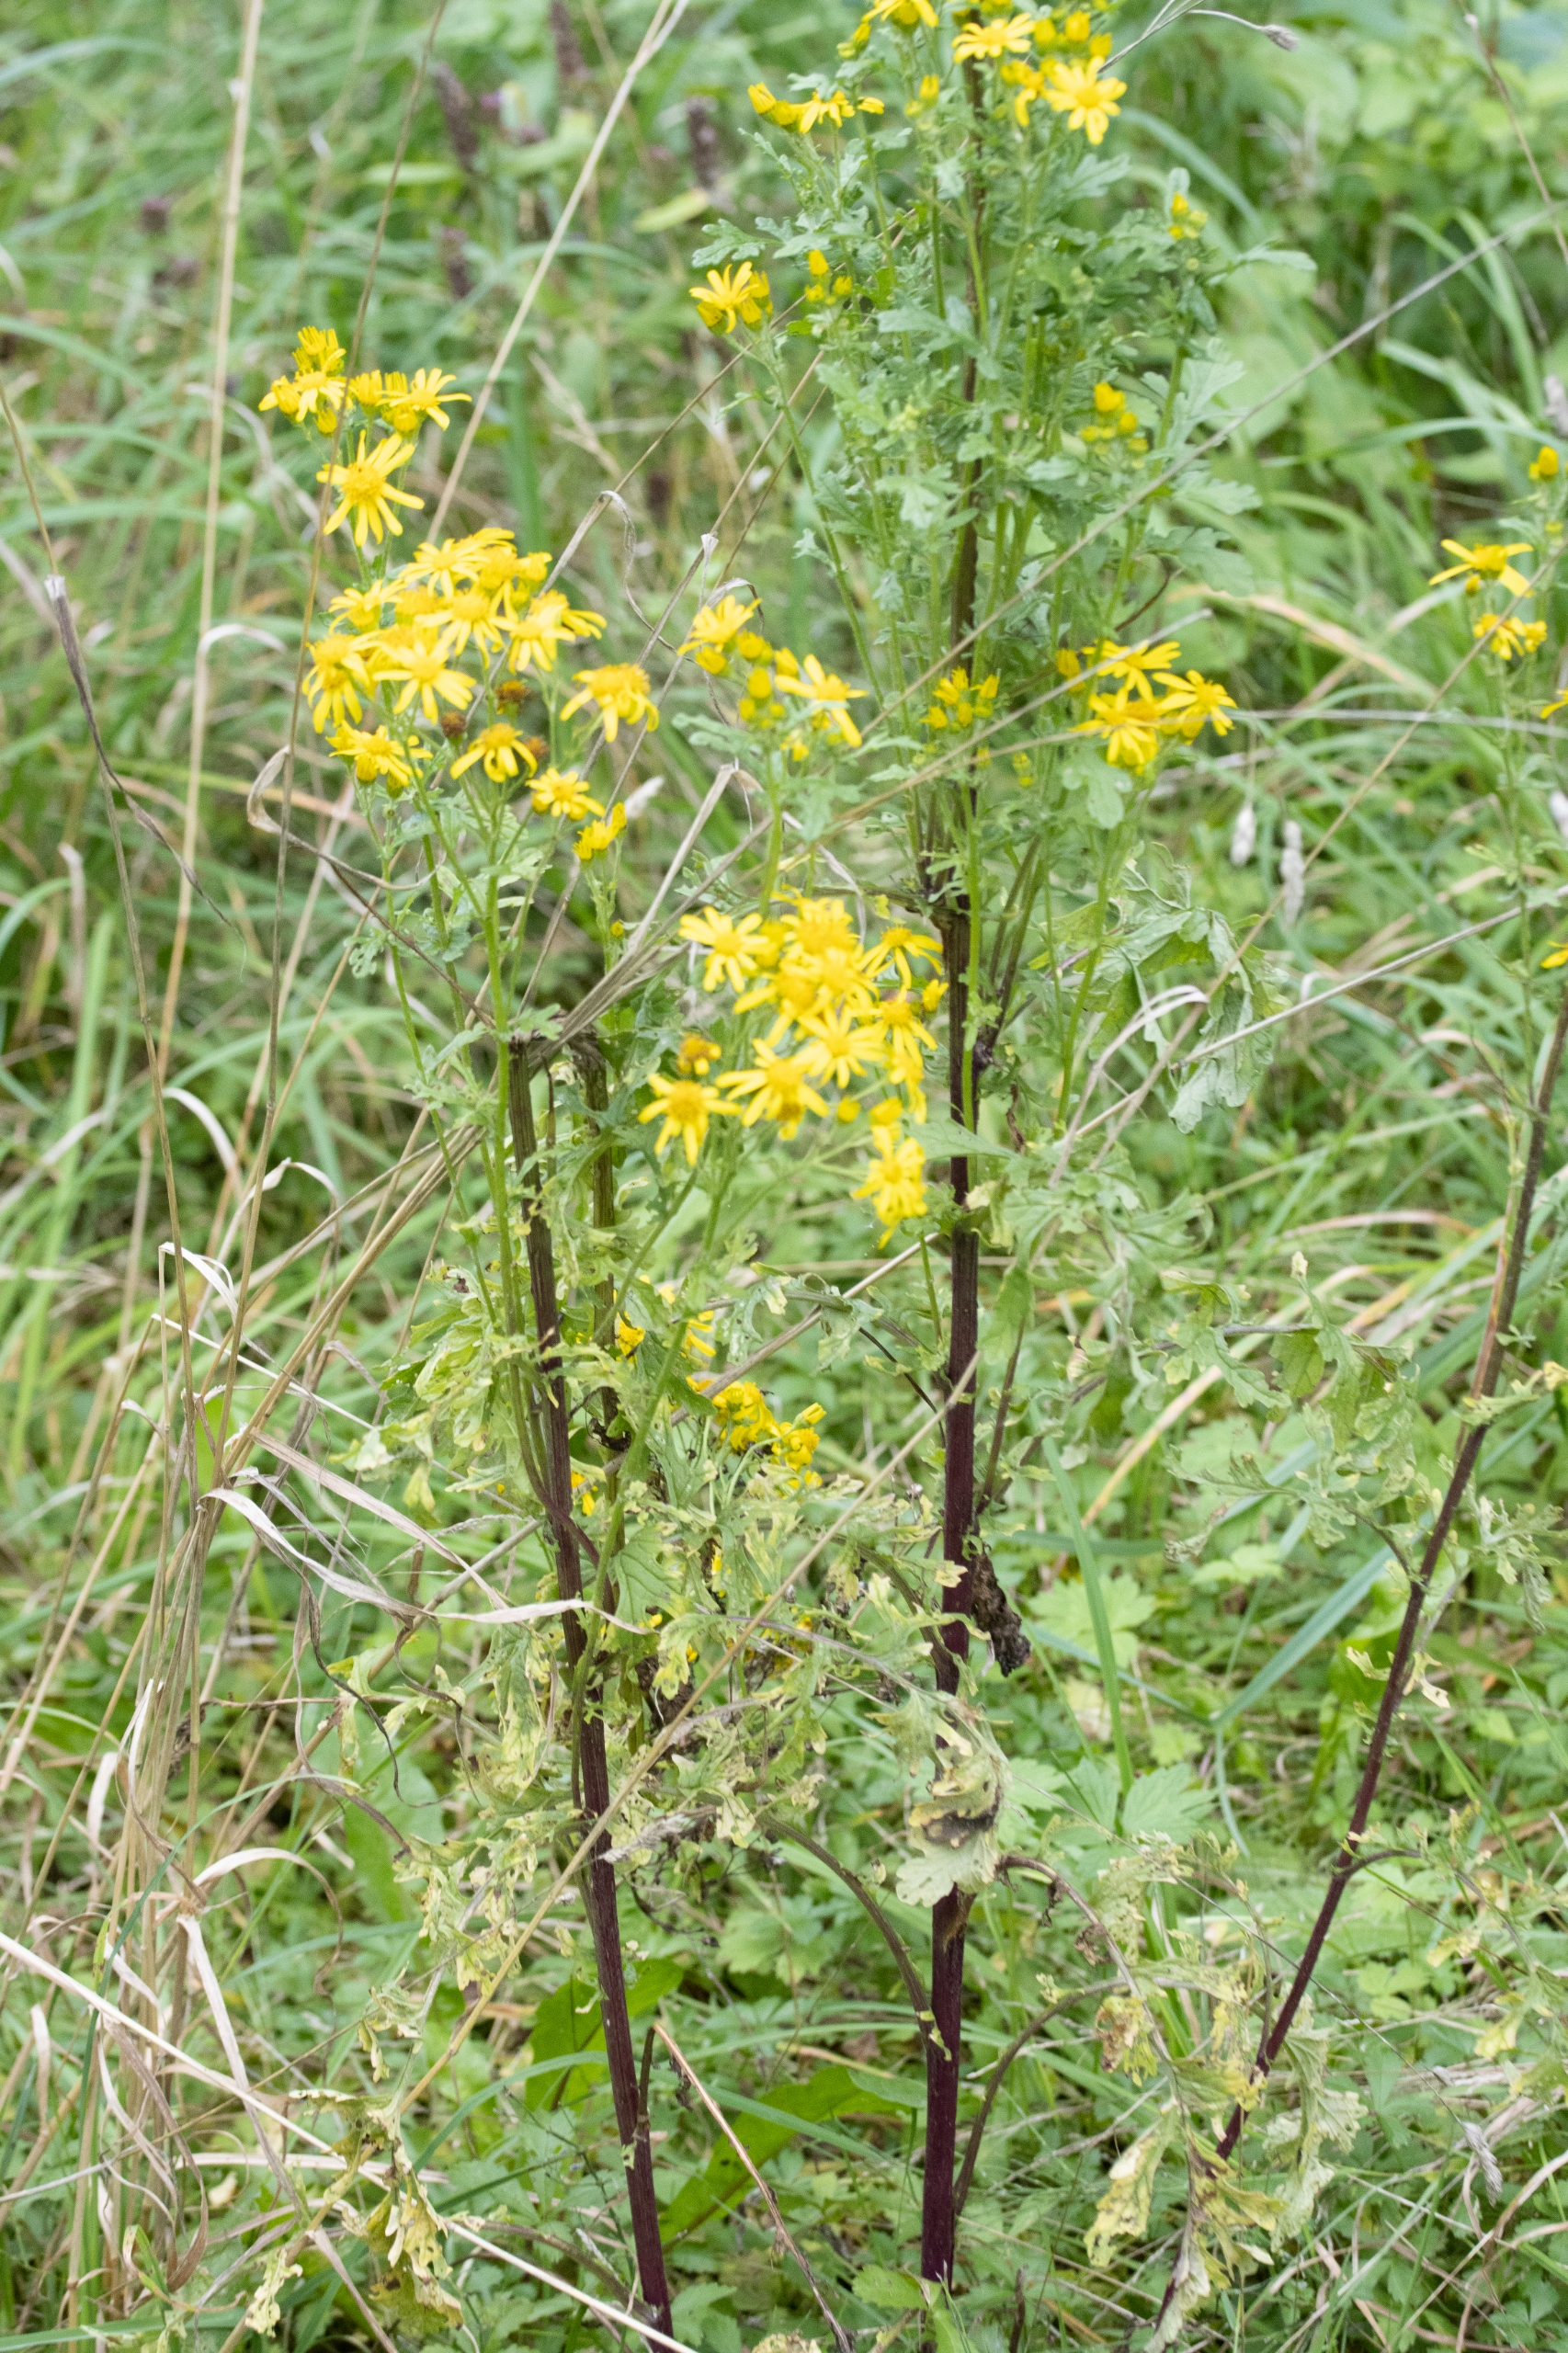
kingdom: Plantae
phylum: Tracheophyta
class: Magnoliopsida
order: Asterales
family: Asteraceae
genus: Jacobaea
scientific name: Jacobaea vulgaris
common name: Eng-brandbæger
